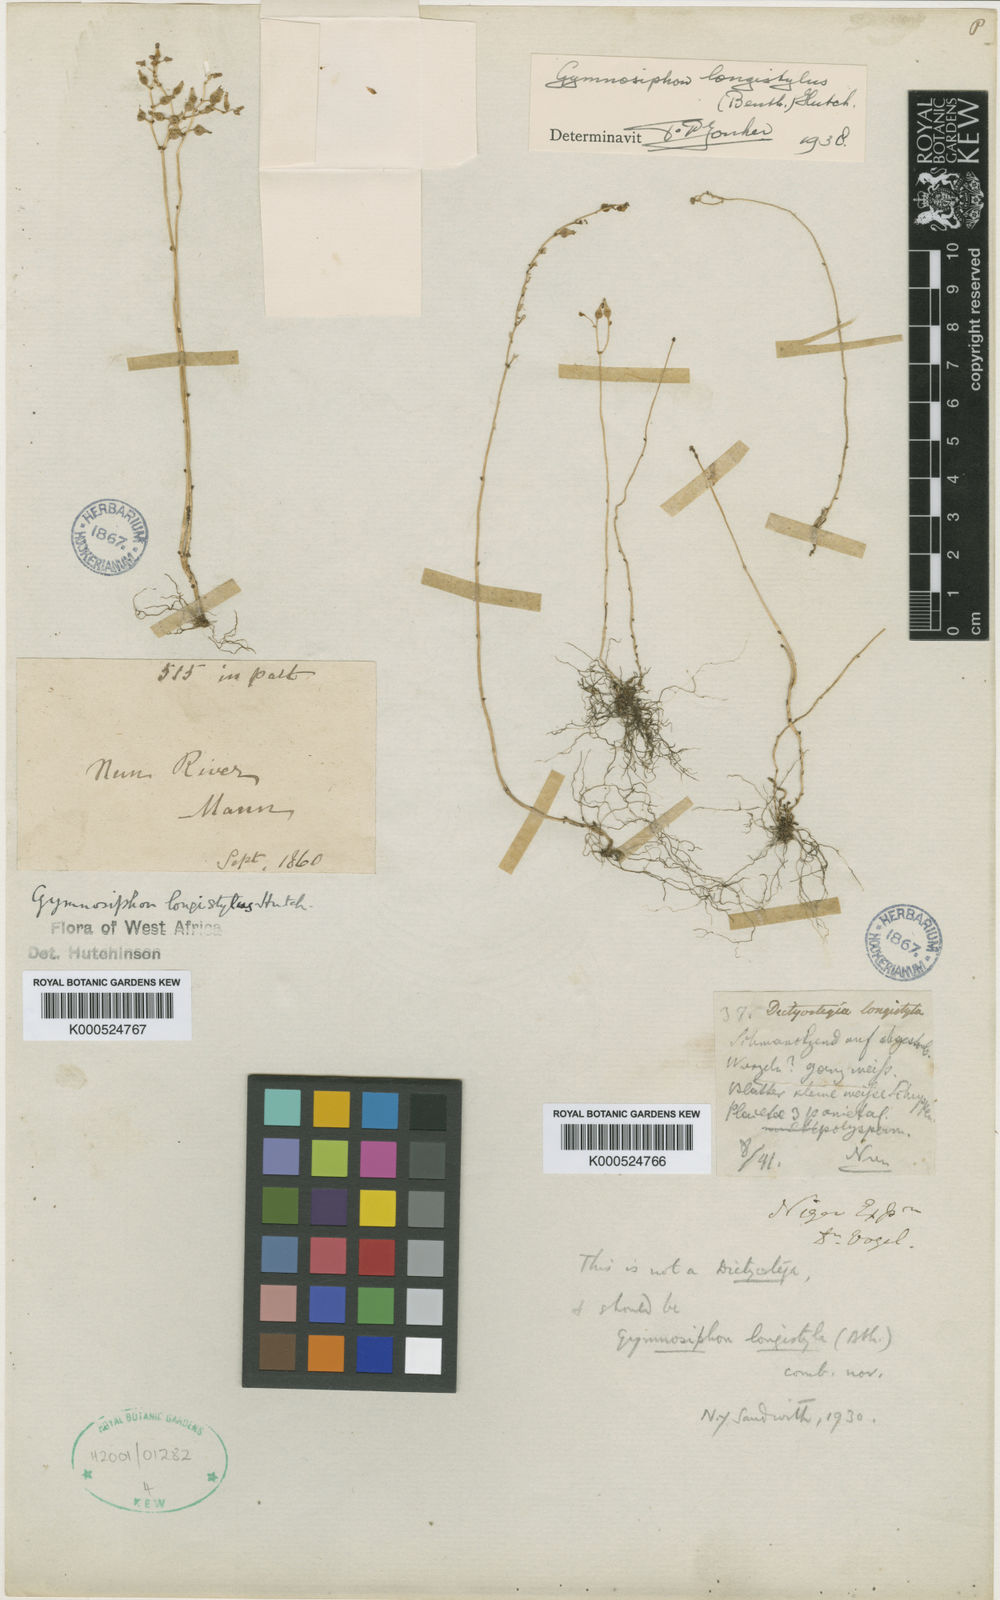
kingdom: Plantae
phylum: Tracheophyta
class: Liliopsida
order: Dioscoreales
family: Burmanniaceae
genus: Gymnosiphon
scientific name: Gymnosiphon longistylus
